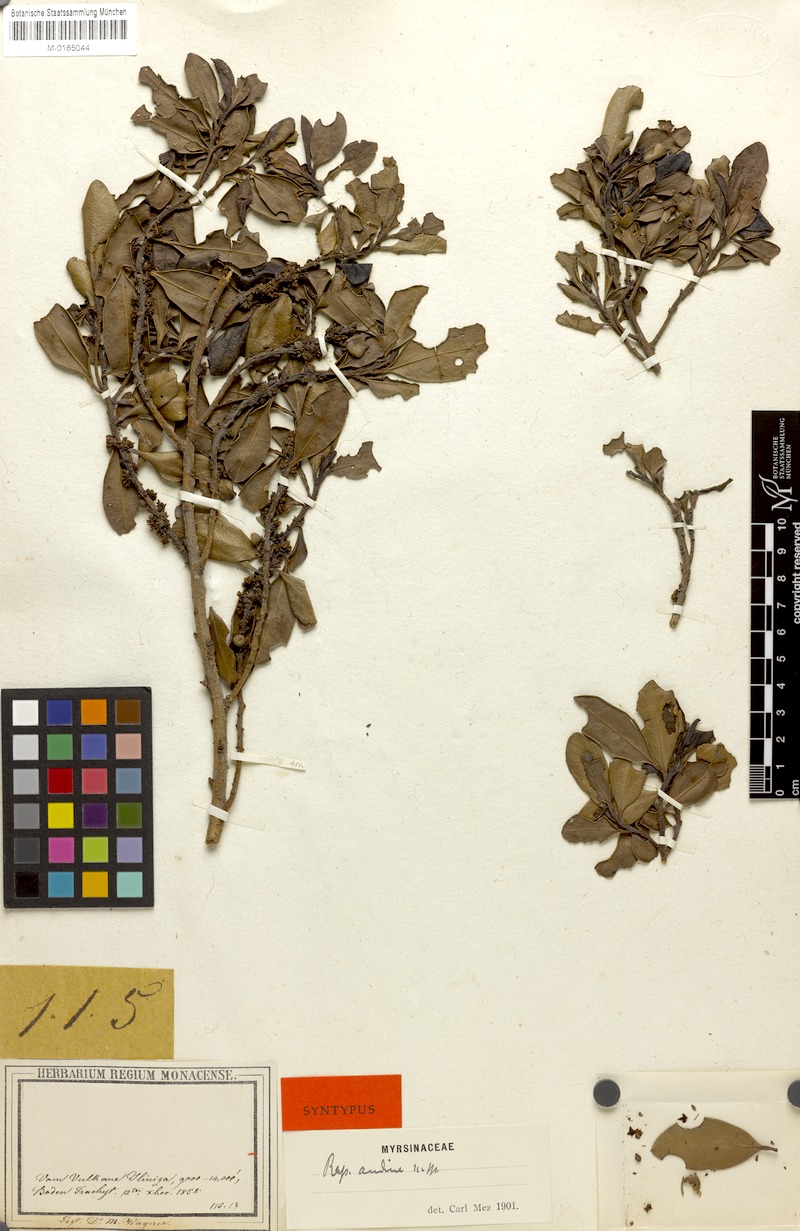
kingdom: Plantae
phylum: Tracheophyta
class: Magnoliopsida
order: Ericales
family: Primulaceae
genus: Myrsine
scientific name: Myrsine andina
